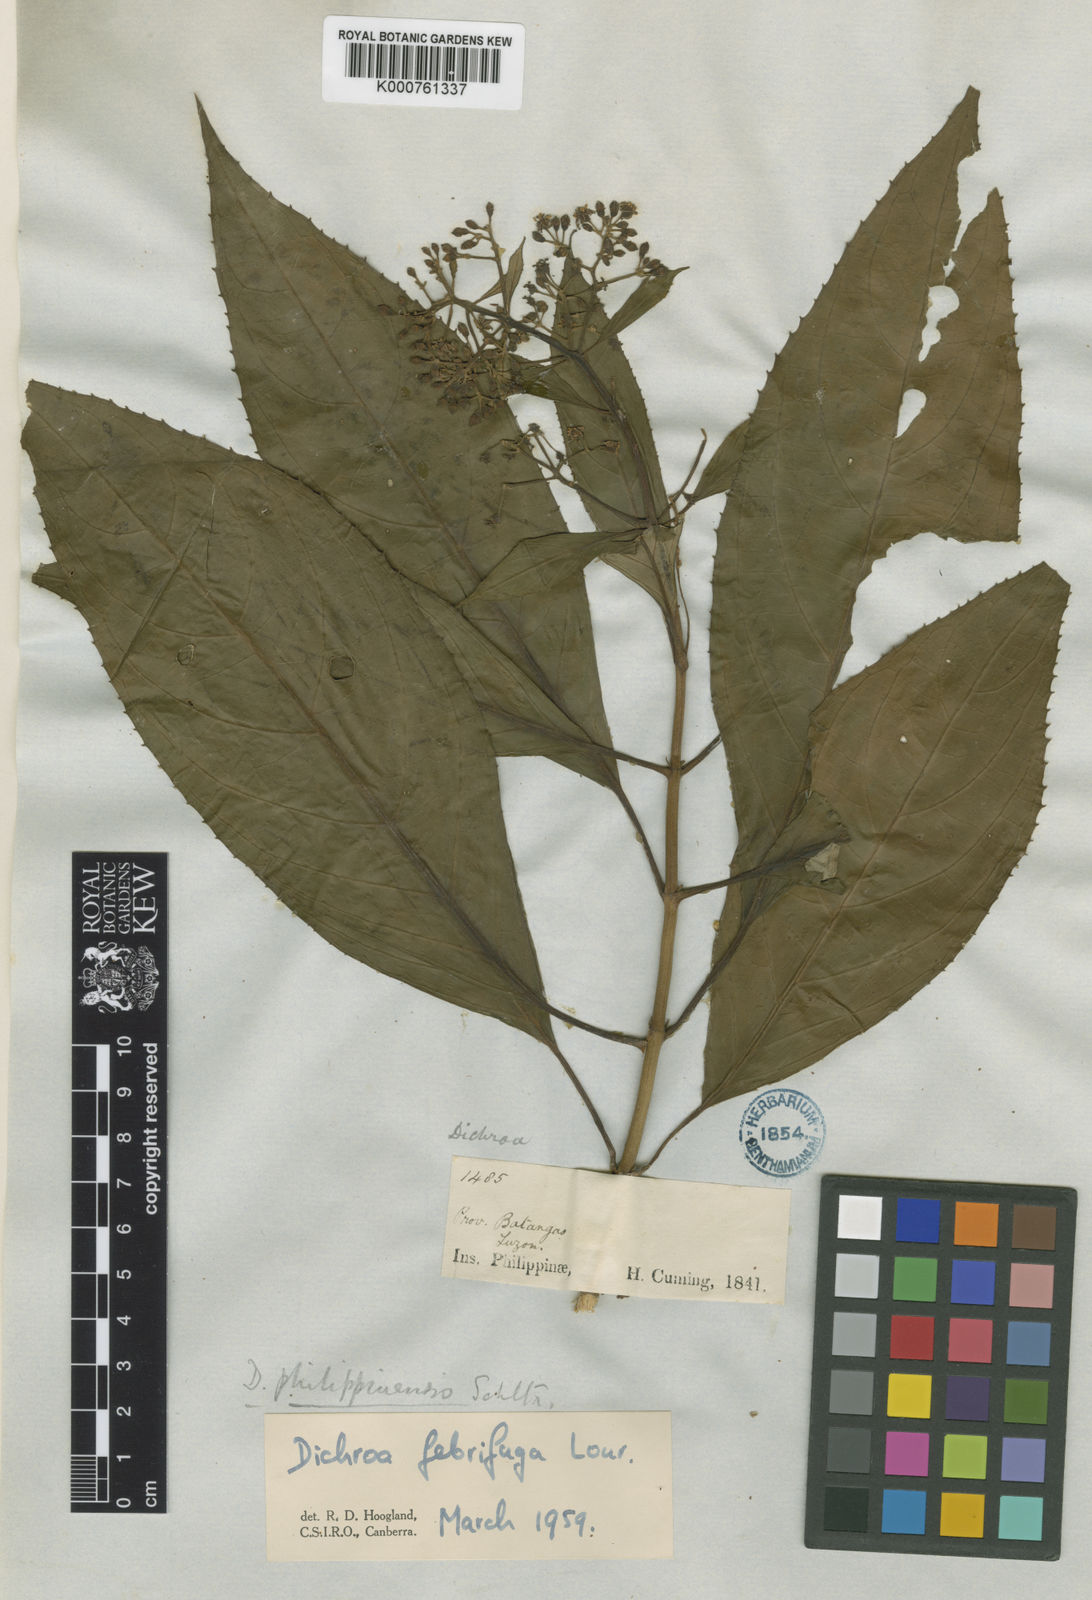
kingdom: Plantae
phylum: Tracheophyta
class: Magnoliopsida
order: Cornales
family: Hydrangeaceae
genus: Hydrangea
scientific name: Hydrangea febrifuga
